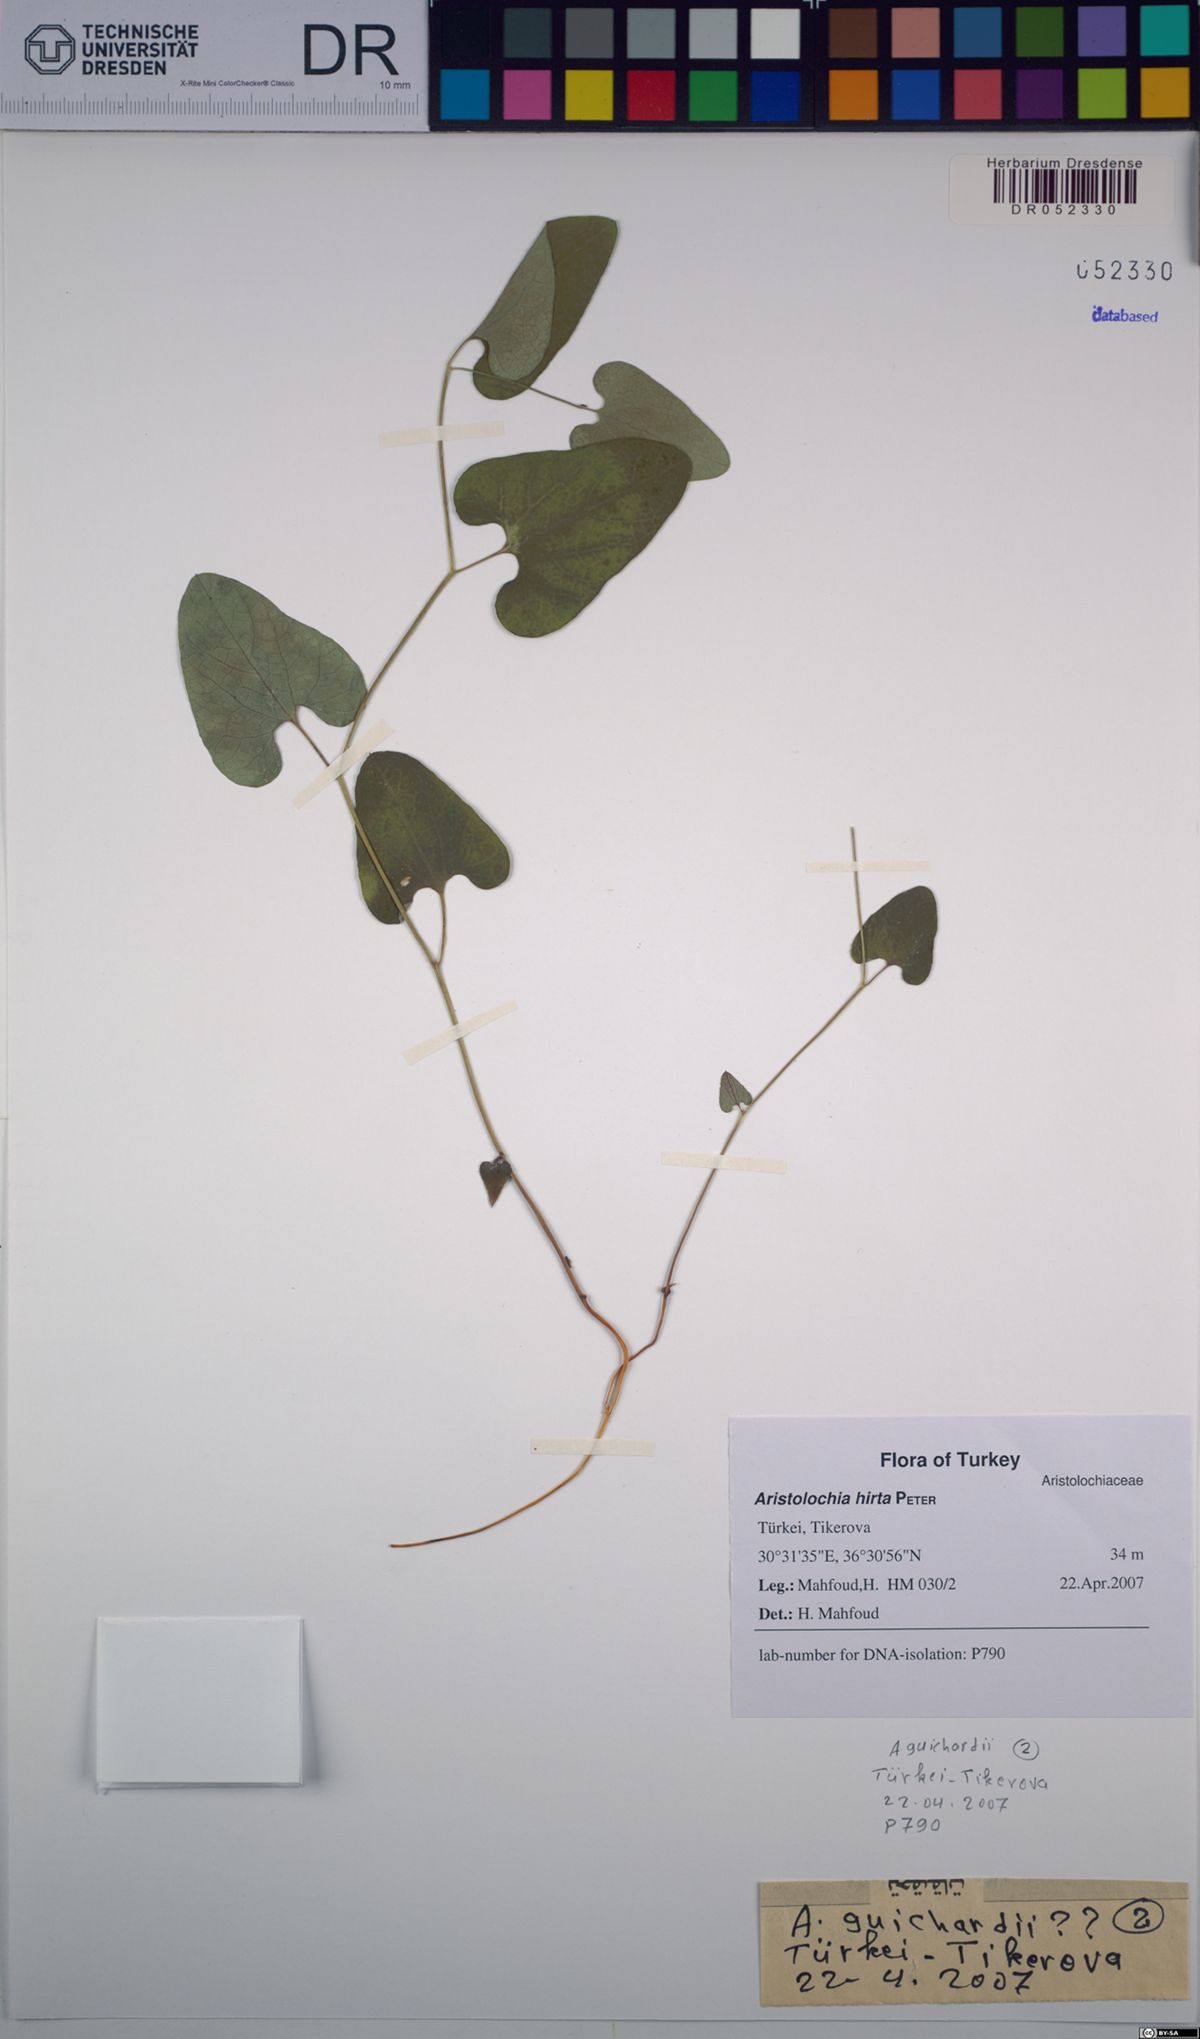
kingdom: Plantae
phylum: Tracheophyta
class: Magnoliopsida
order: Piperales
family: Aristolochiaceae
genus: Aristolochia
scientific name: Aristolochia hockii
